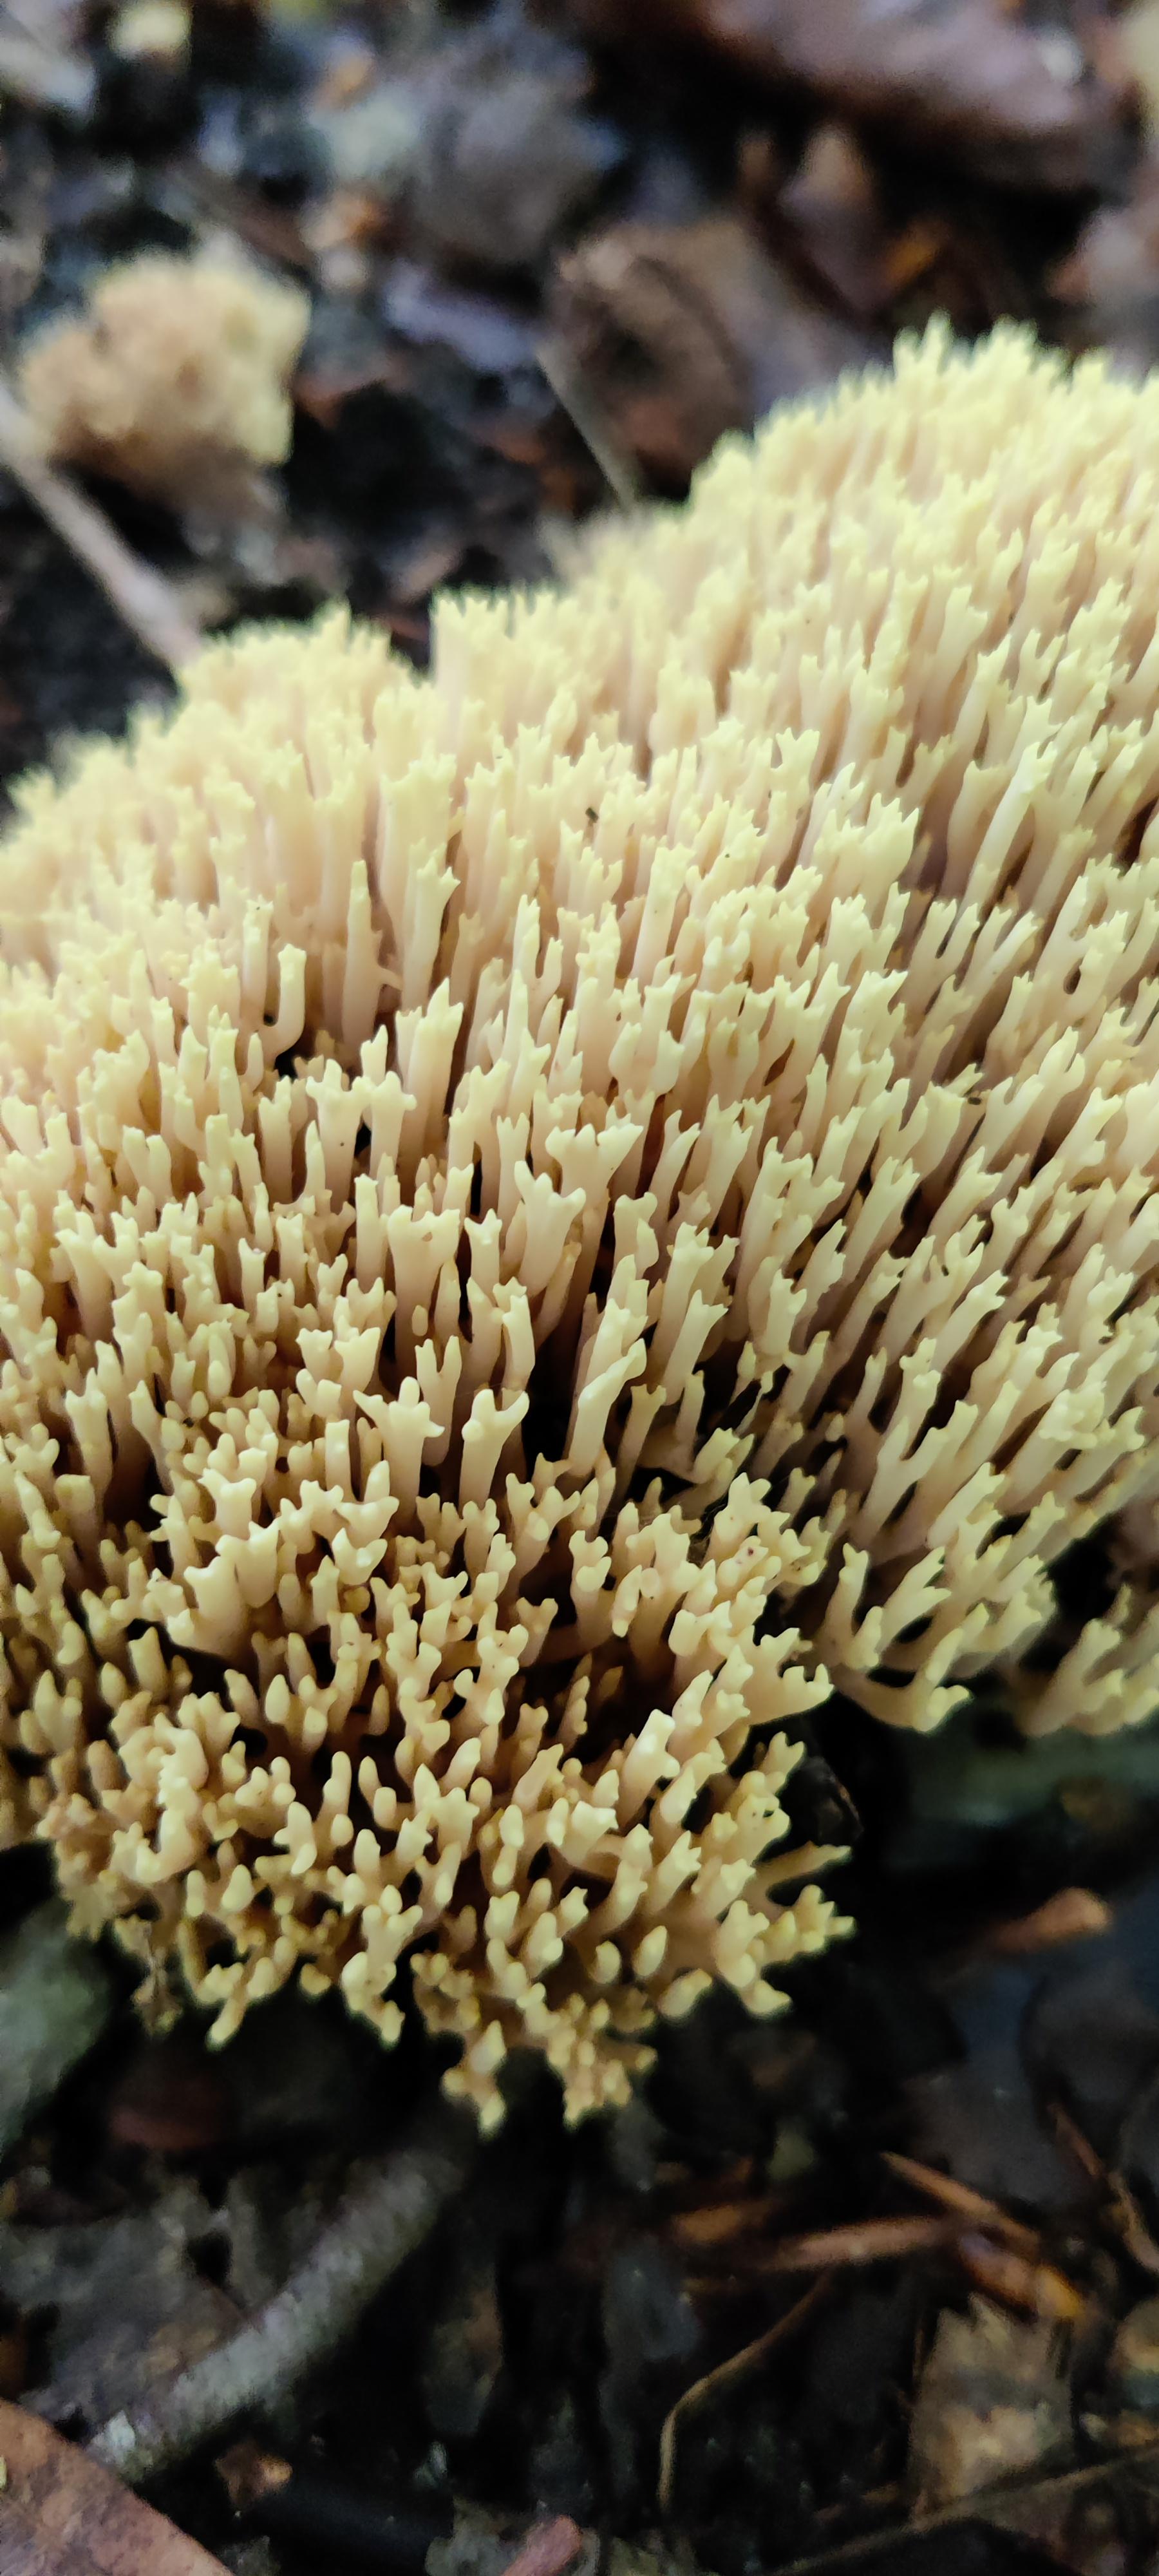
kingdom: Fungi
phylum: Basidiomycota
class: Agaricomycetes
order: Gomphales
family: Gomphaceae
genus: Ramaria
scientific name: Ramaria stricta
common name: rank koralsvamp
